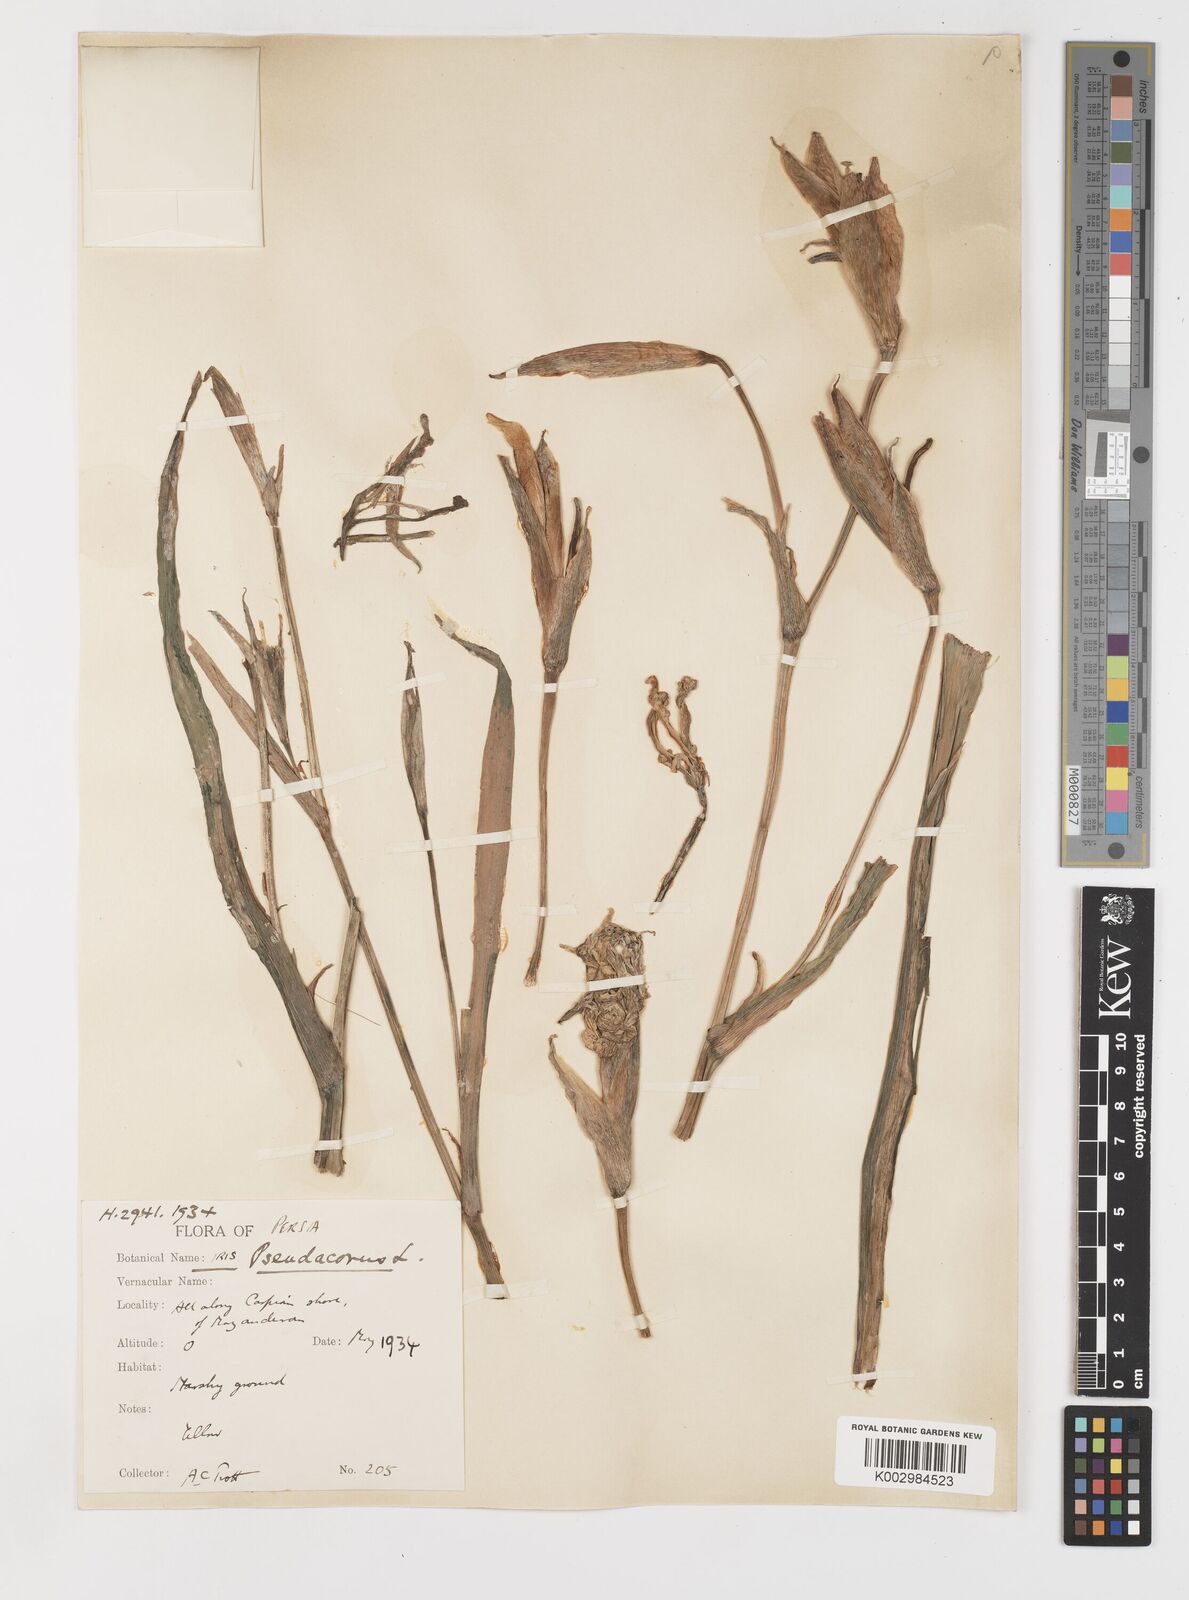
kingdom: Plantae
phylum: Tracheophyta
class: Liliopsida
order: Asparagales
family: Iridaceae
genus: Iris
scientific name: Iris pseudacorus
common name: Yellow flag
